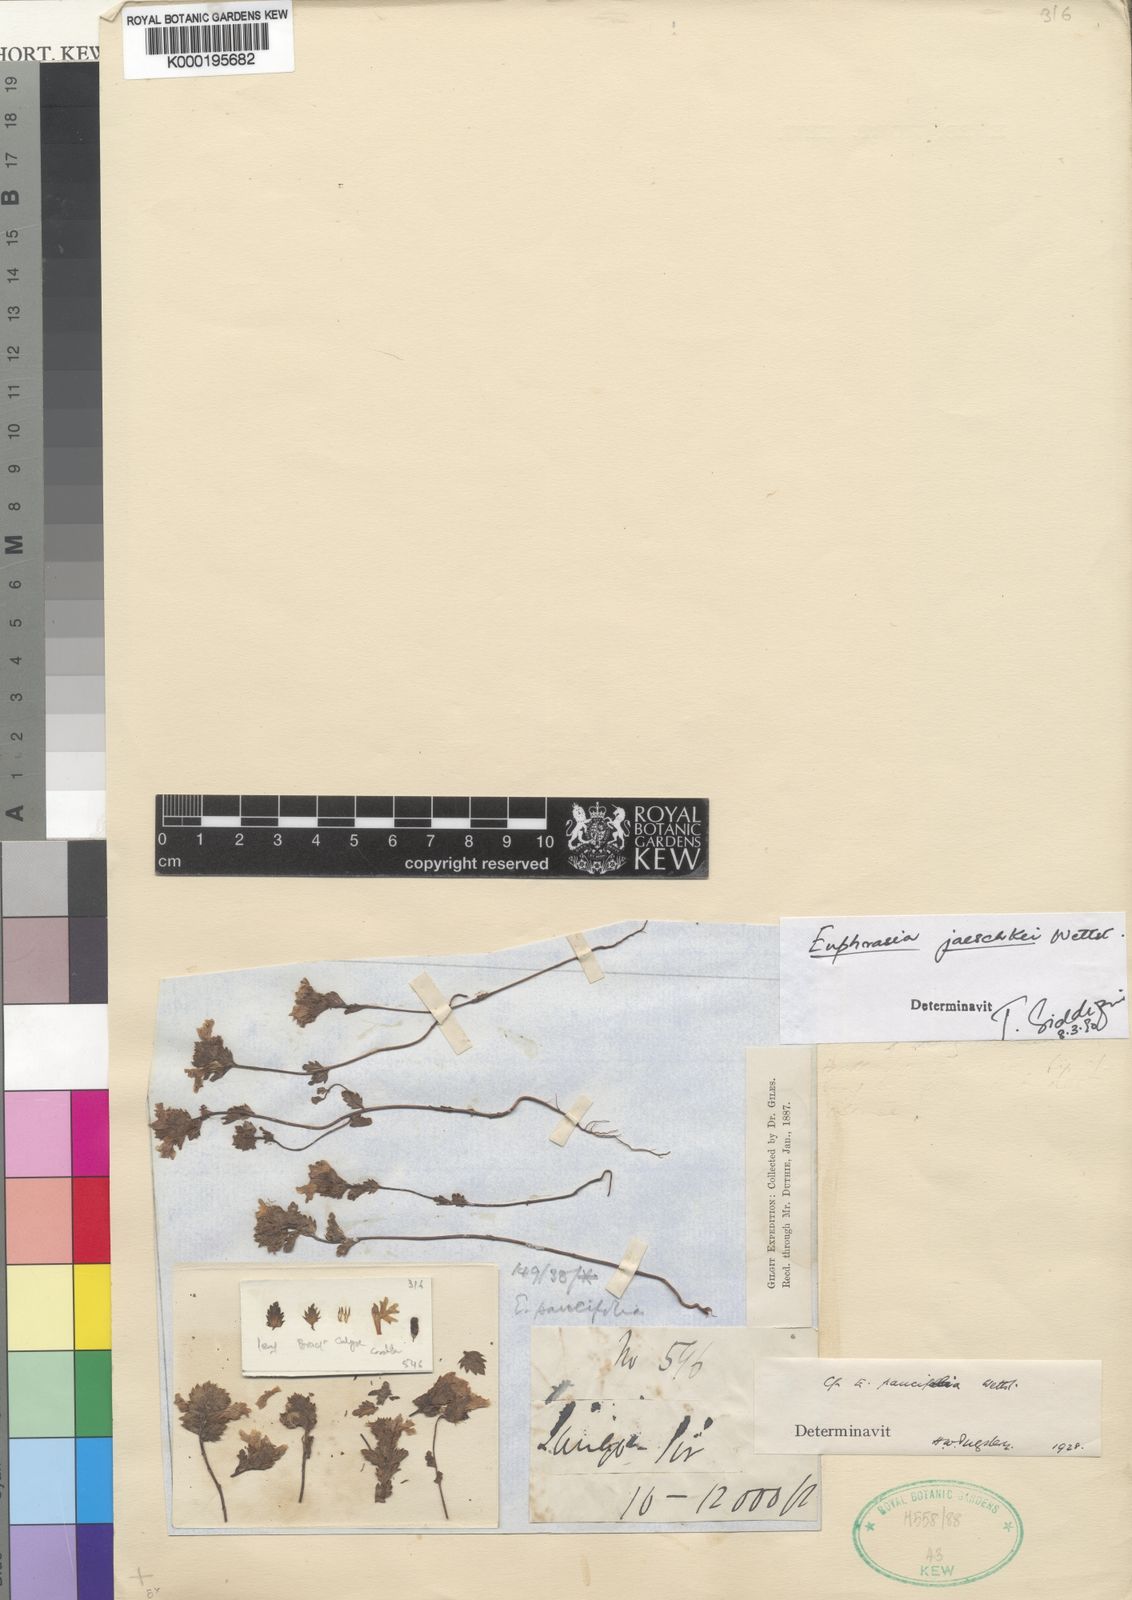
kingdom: Plantae
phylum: Tracheophyta
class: Magnoliopsida
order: Lamiales
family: Orobanchaceae
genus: Euphrasia
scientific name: Euphrasia jaeschkei
